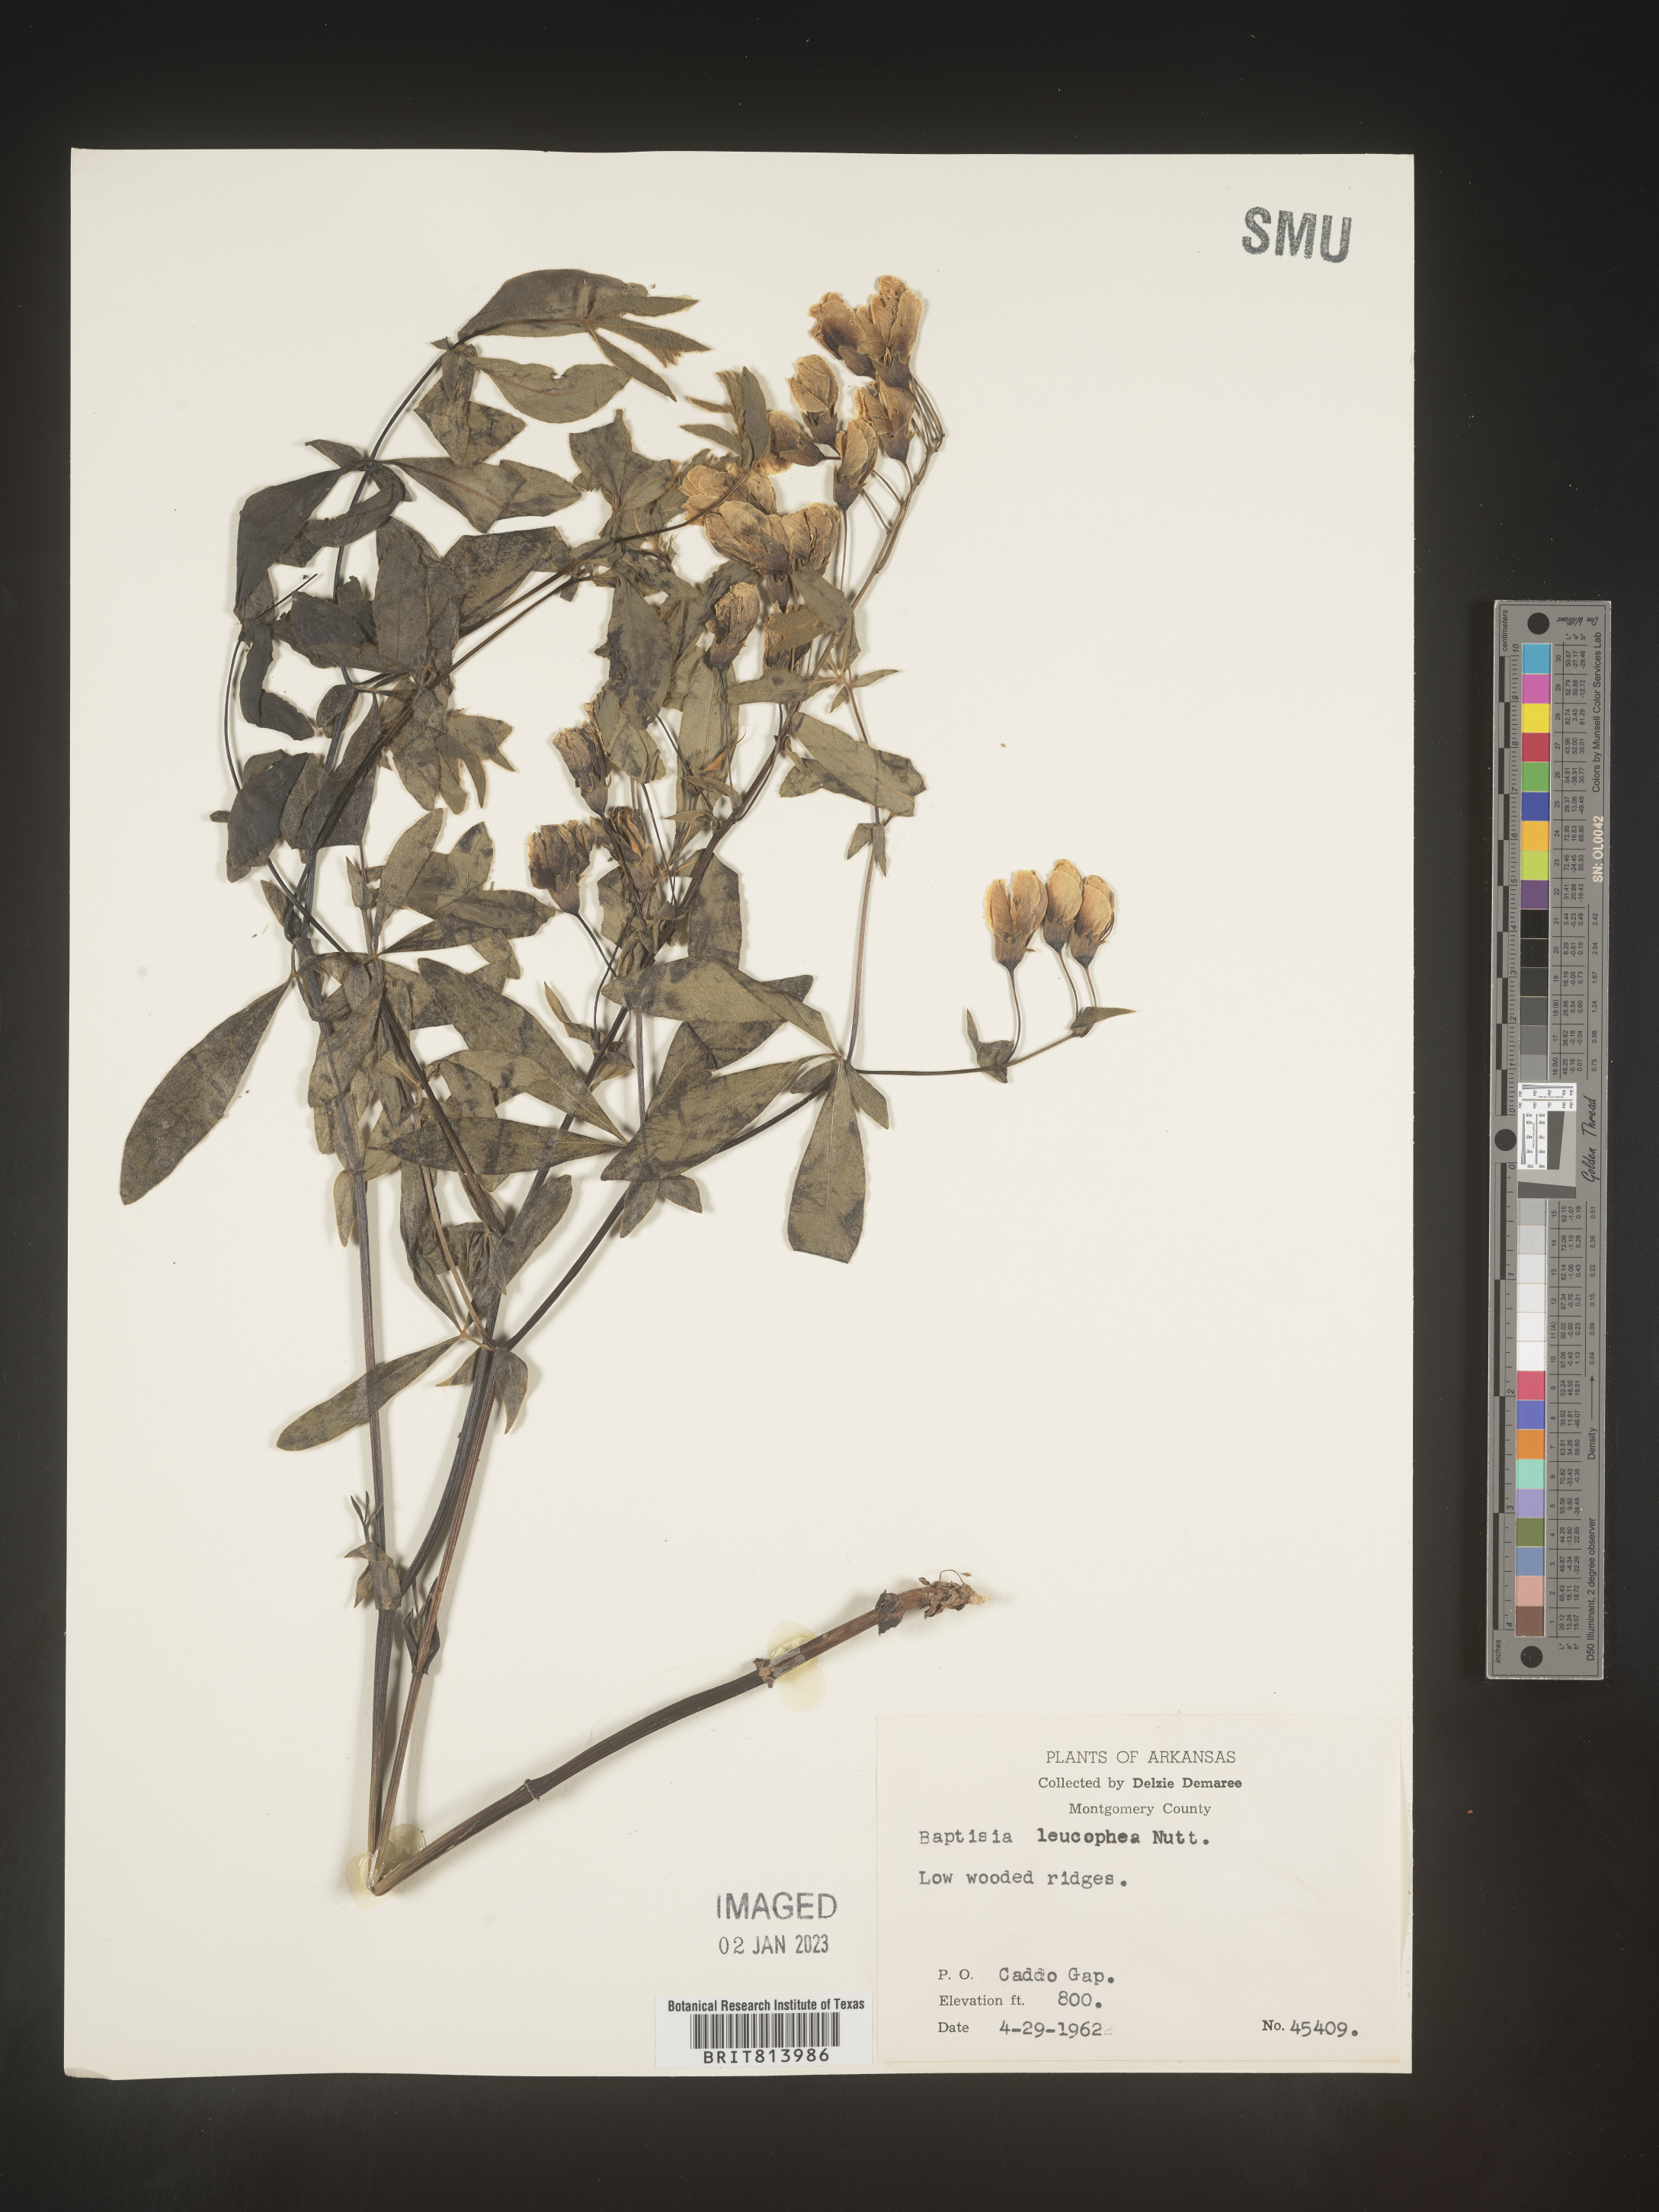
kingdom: Plantae
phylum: Tracheophyta
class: Magnoliopsida
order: Fabales
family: Fabaceae
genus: Baptisia
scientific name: Baptisia bracteata
